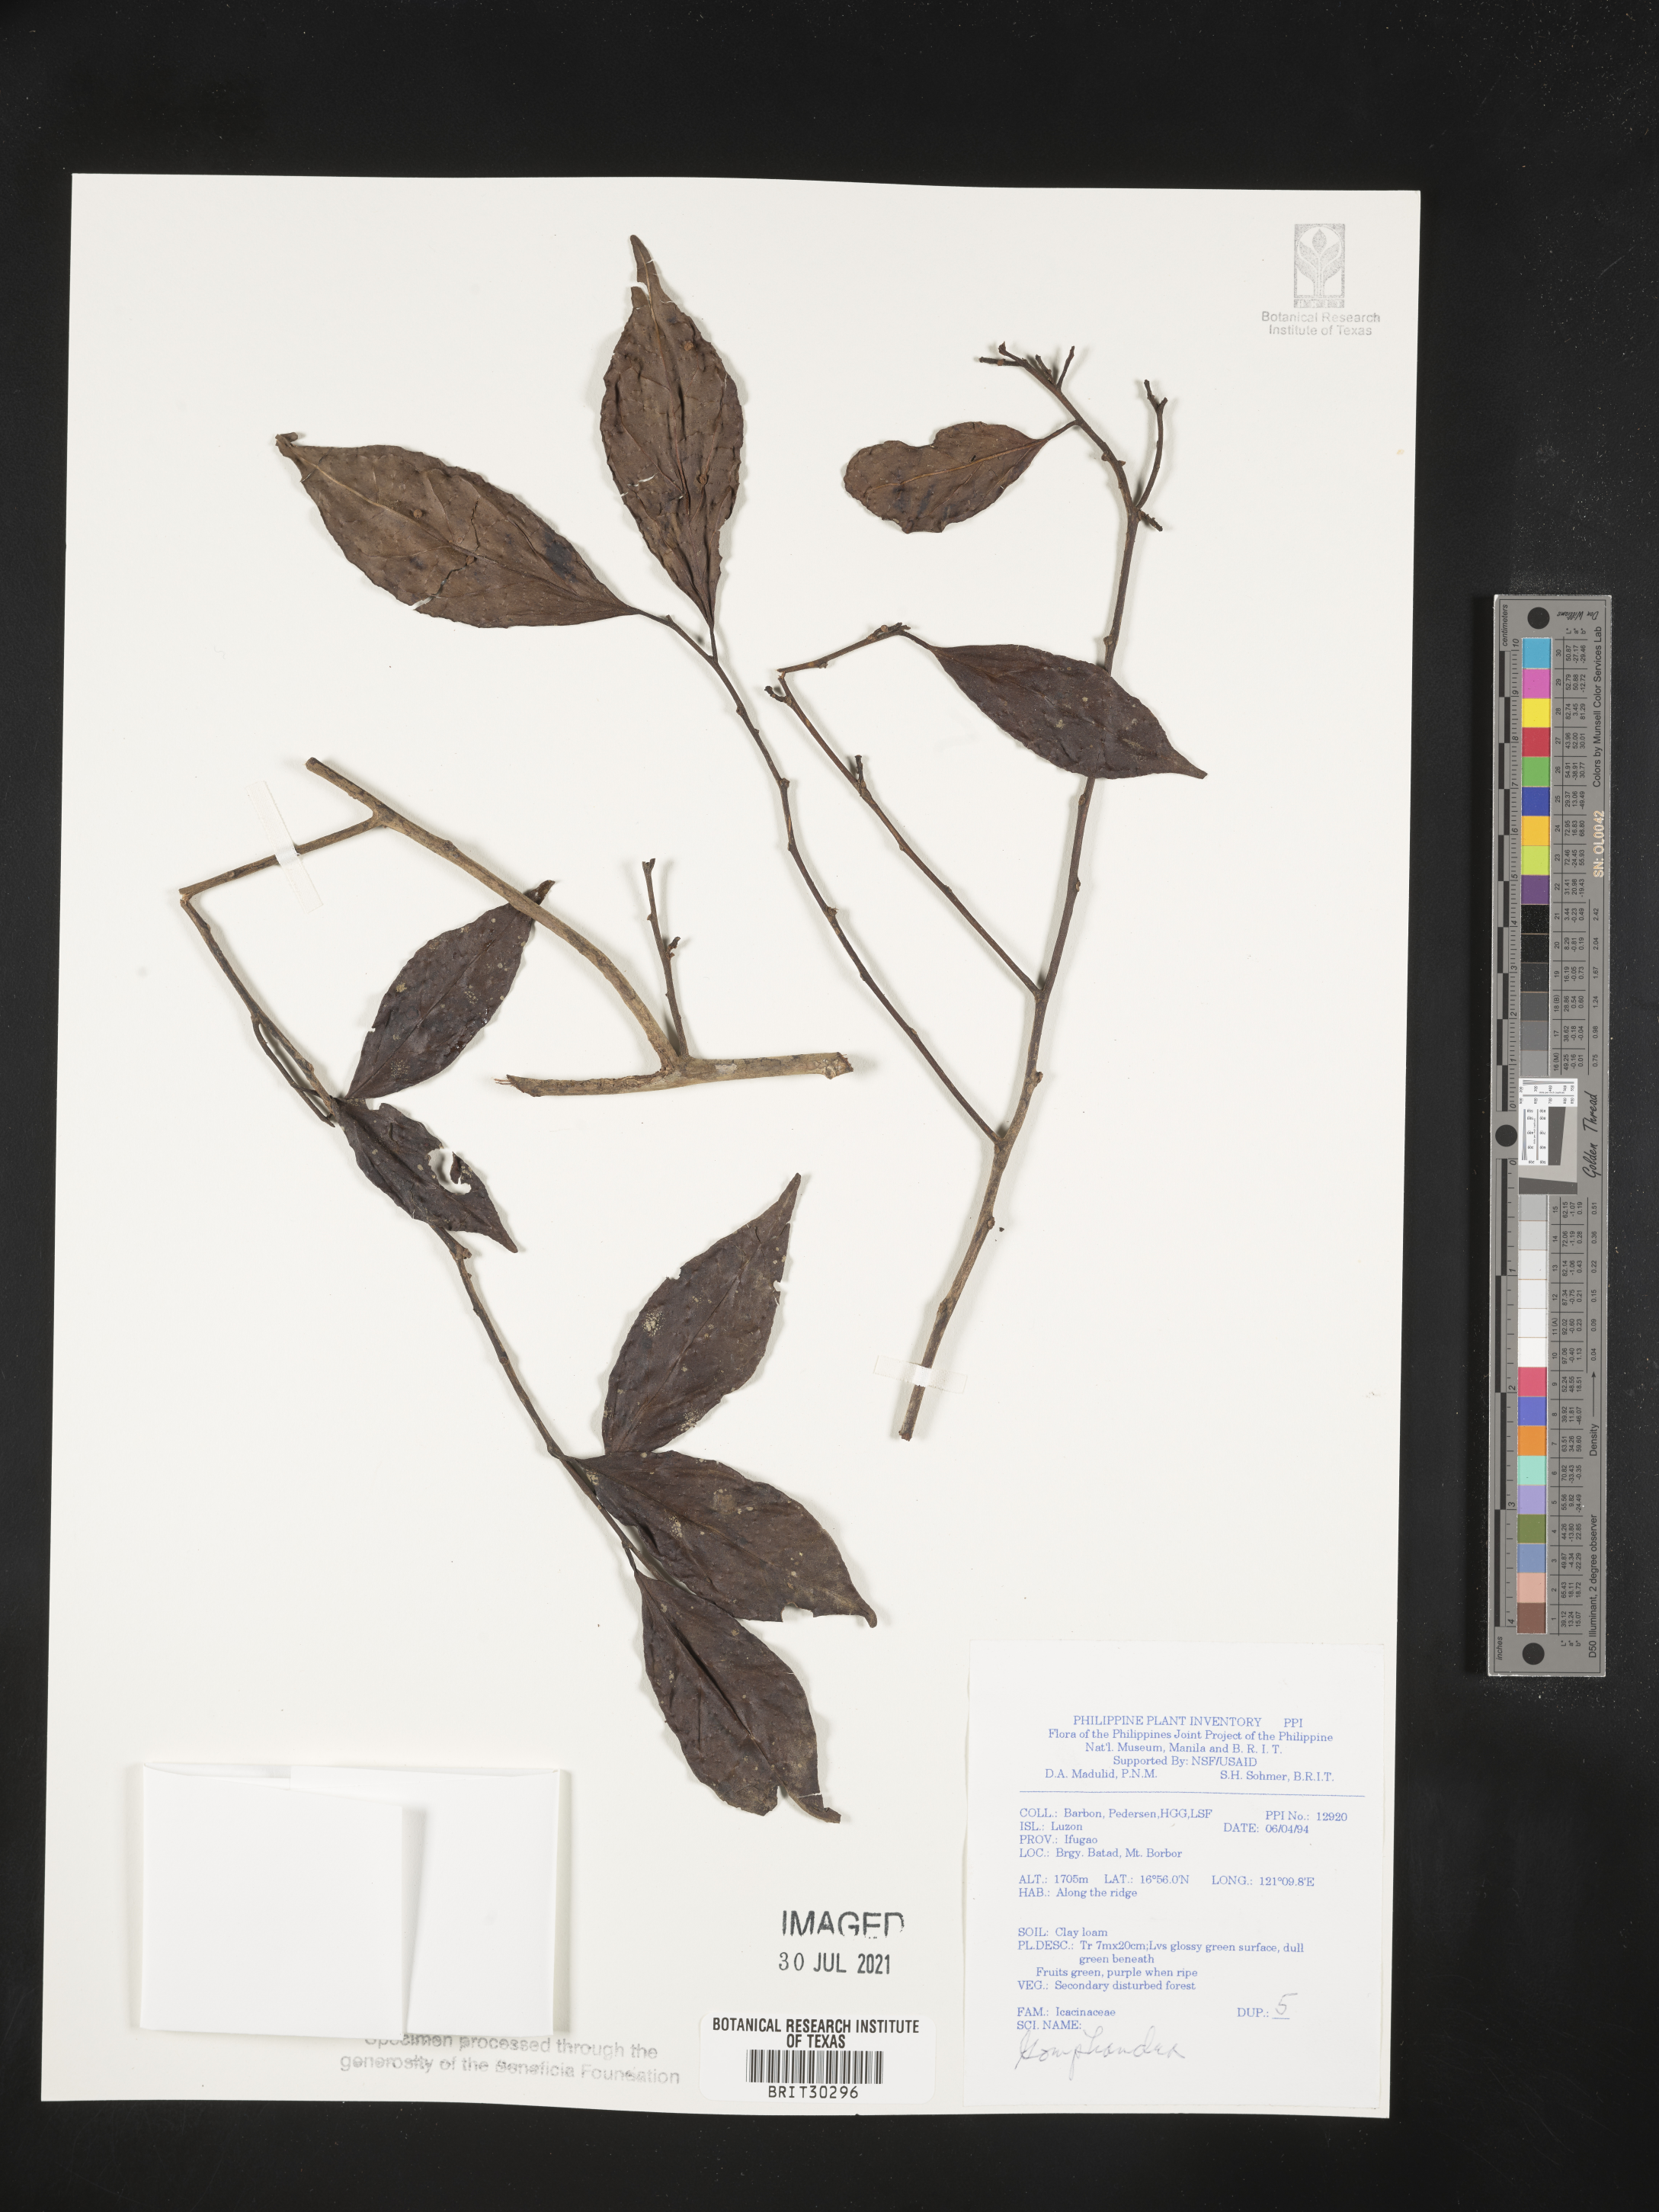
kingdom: Plantae
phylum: Tracheophyta
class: Magnoliopsida
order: Cardiopteridales
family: Stemonuraceae
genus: Gomphandra
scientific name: Gomphandra
